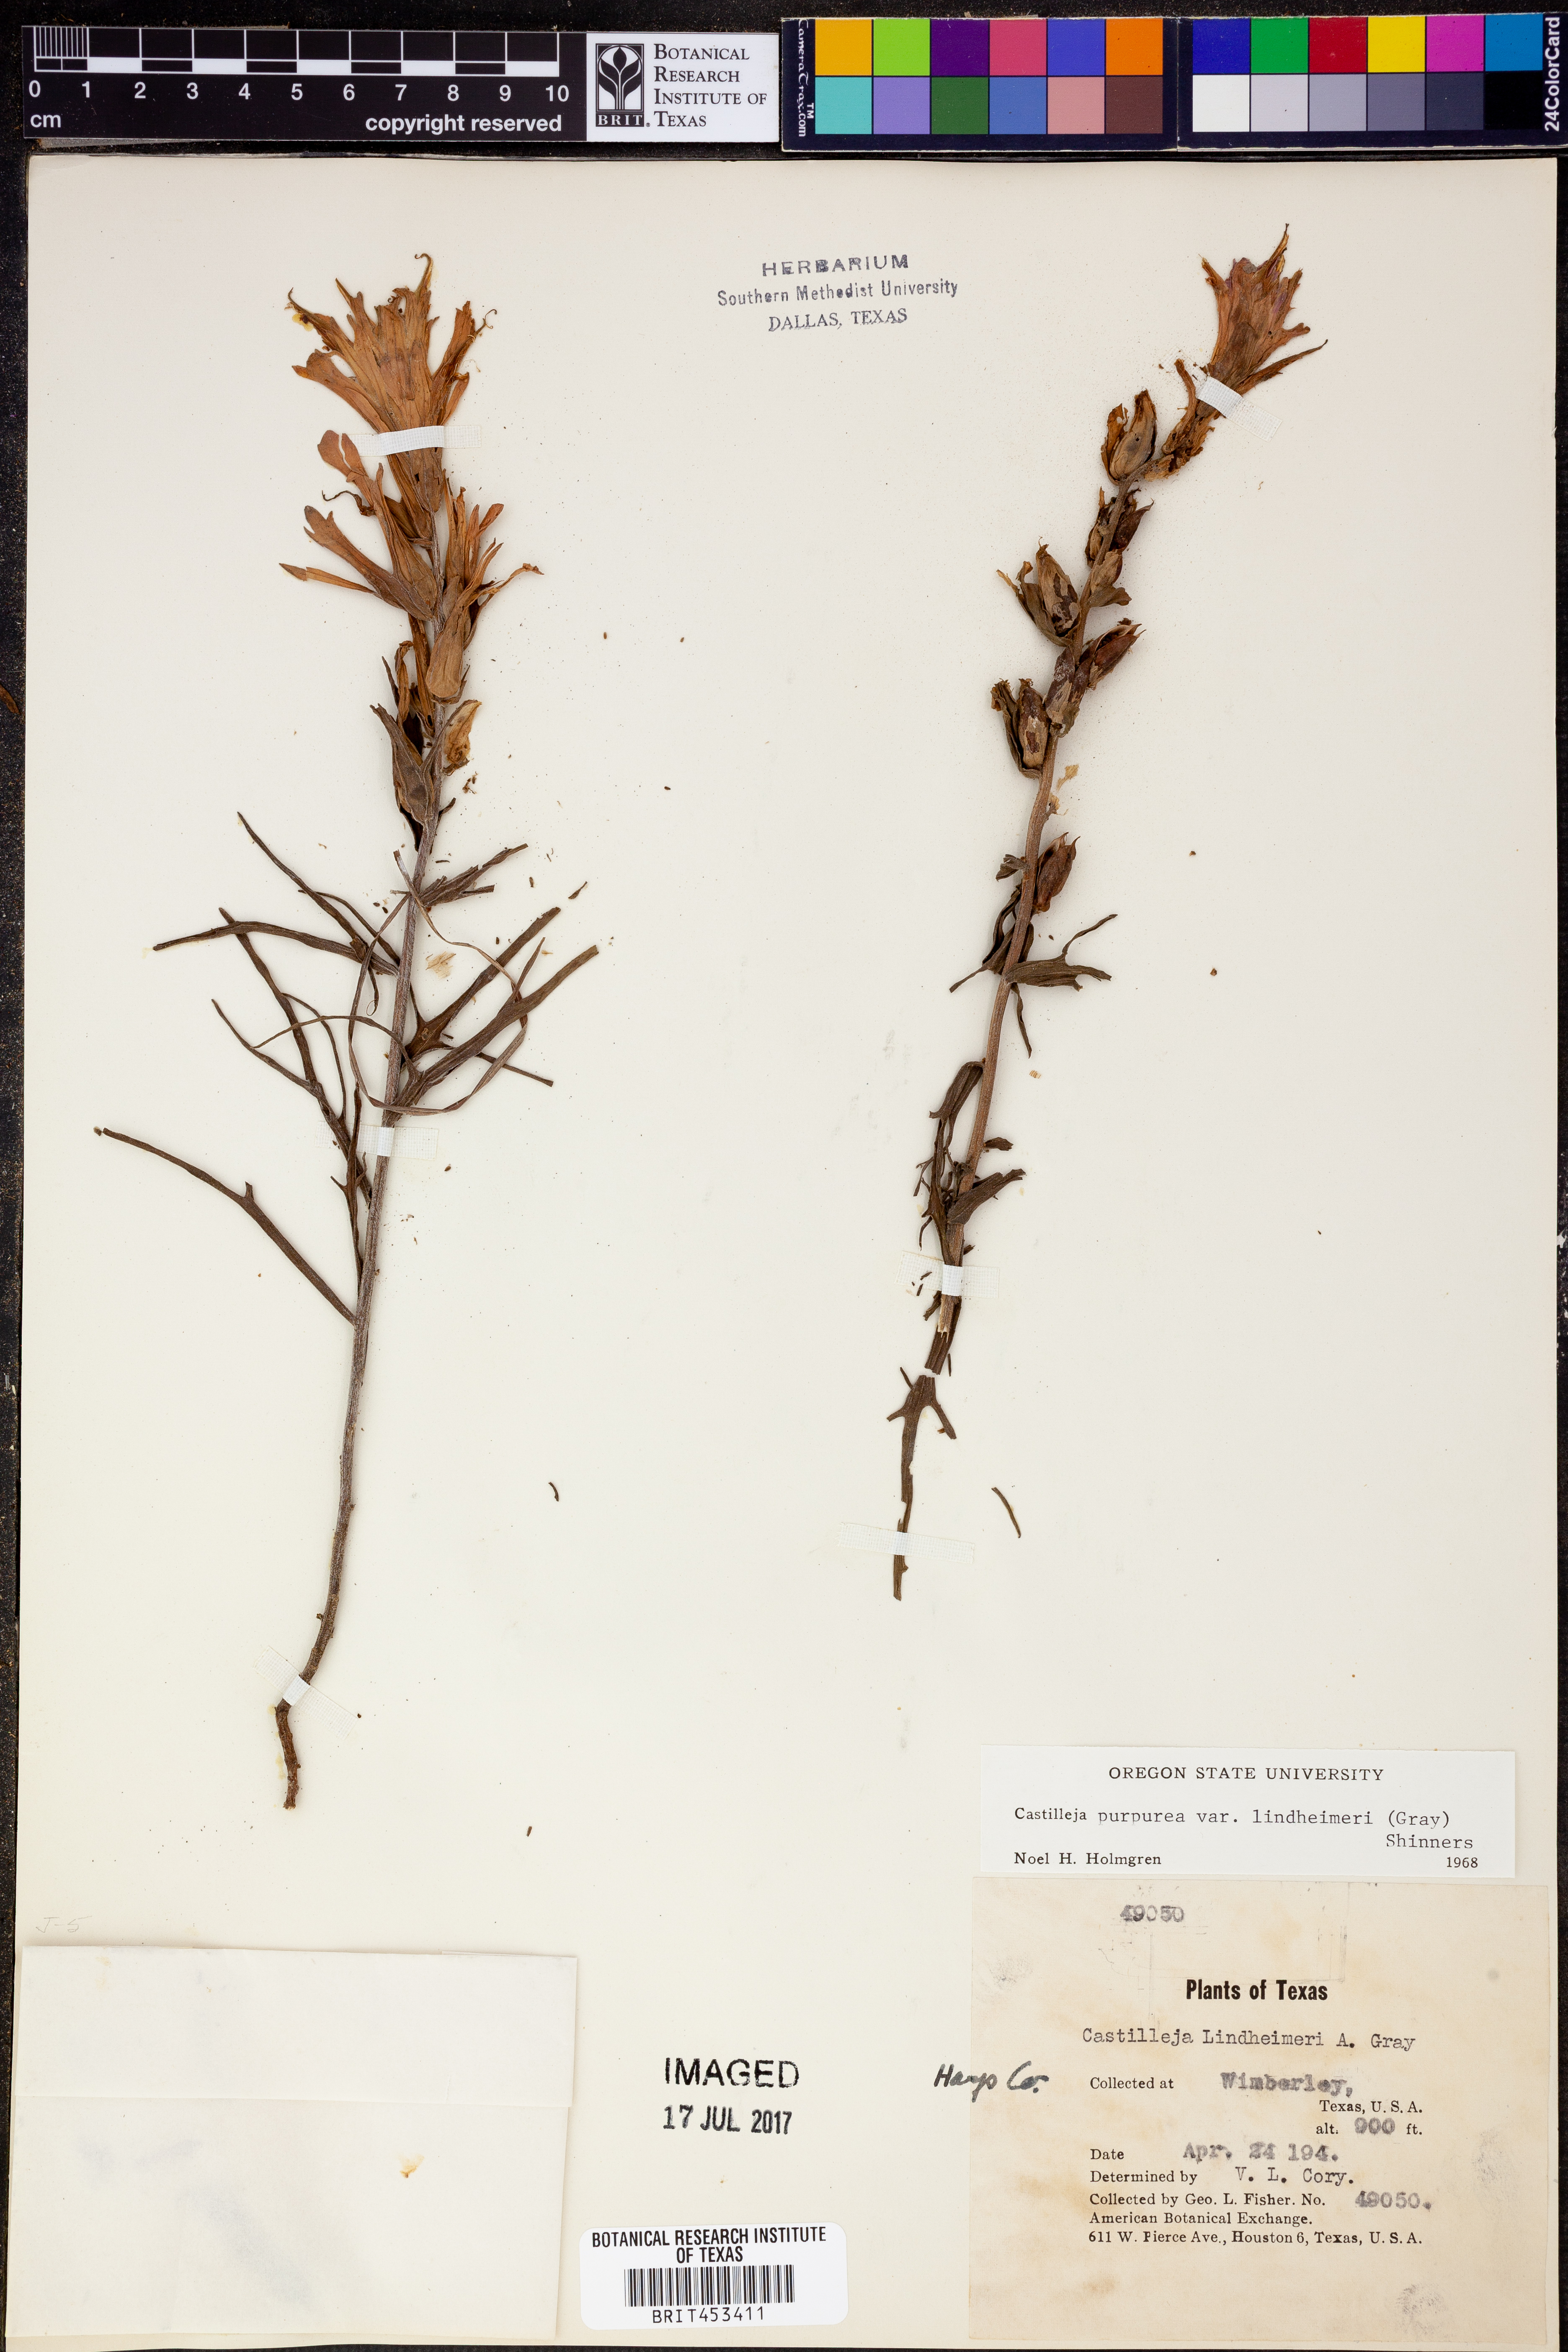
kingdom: Plantae
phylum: Tracheophyta
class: Magnoliopsida
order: Lamiales
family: Orobanchaceae
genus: Castilleja
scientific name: Castilleja lindheimeri
